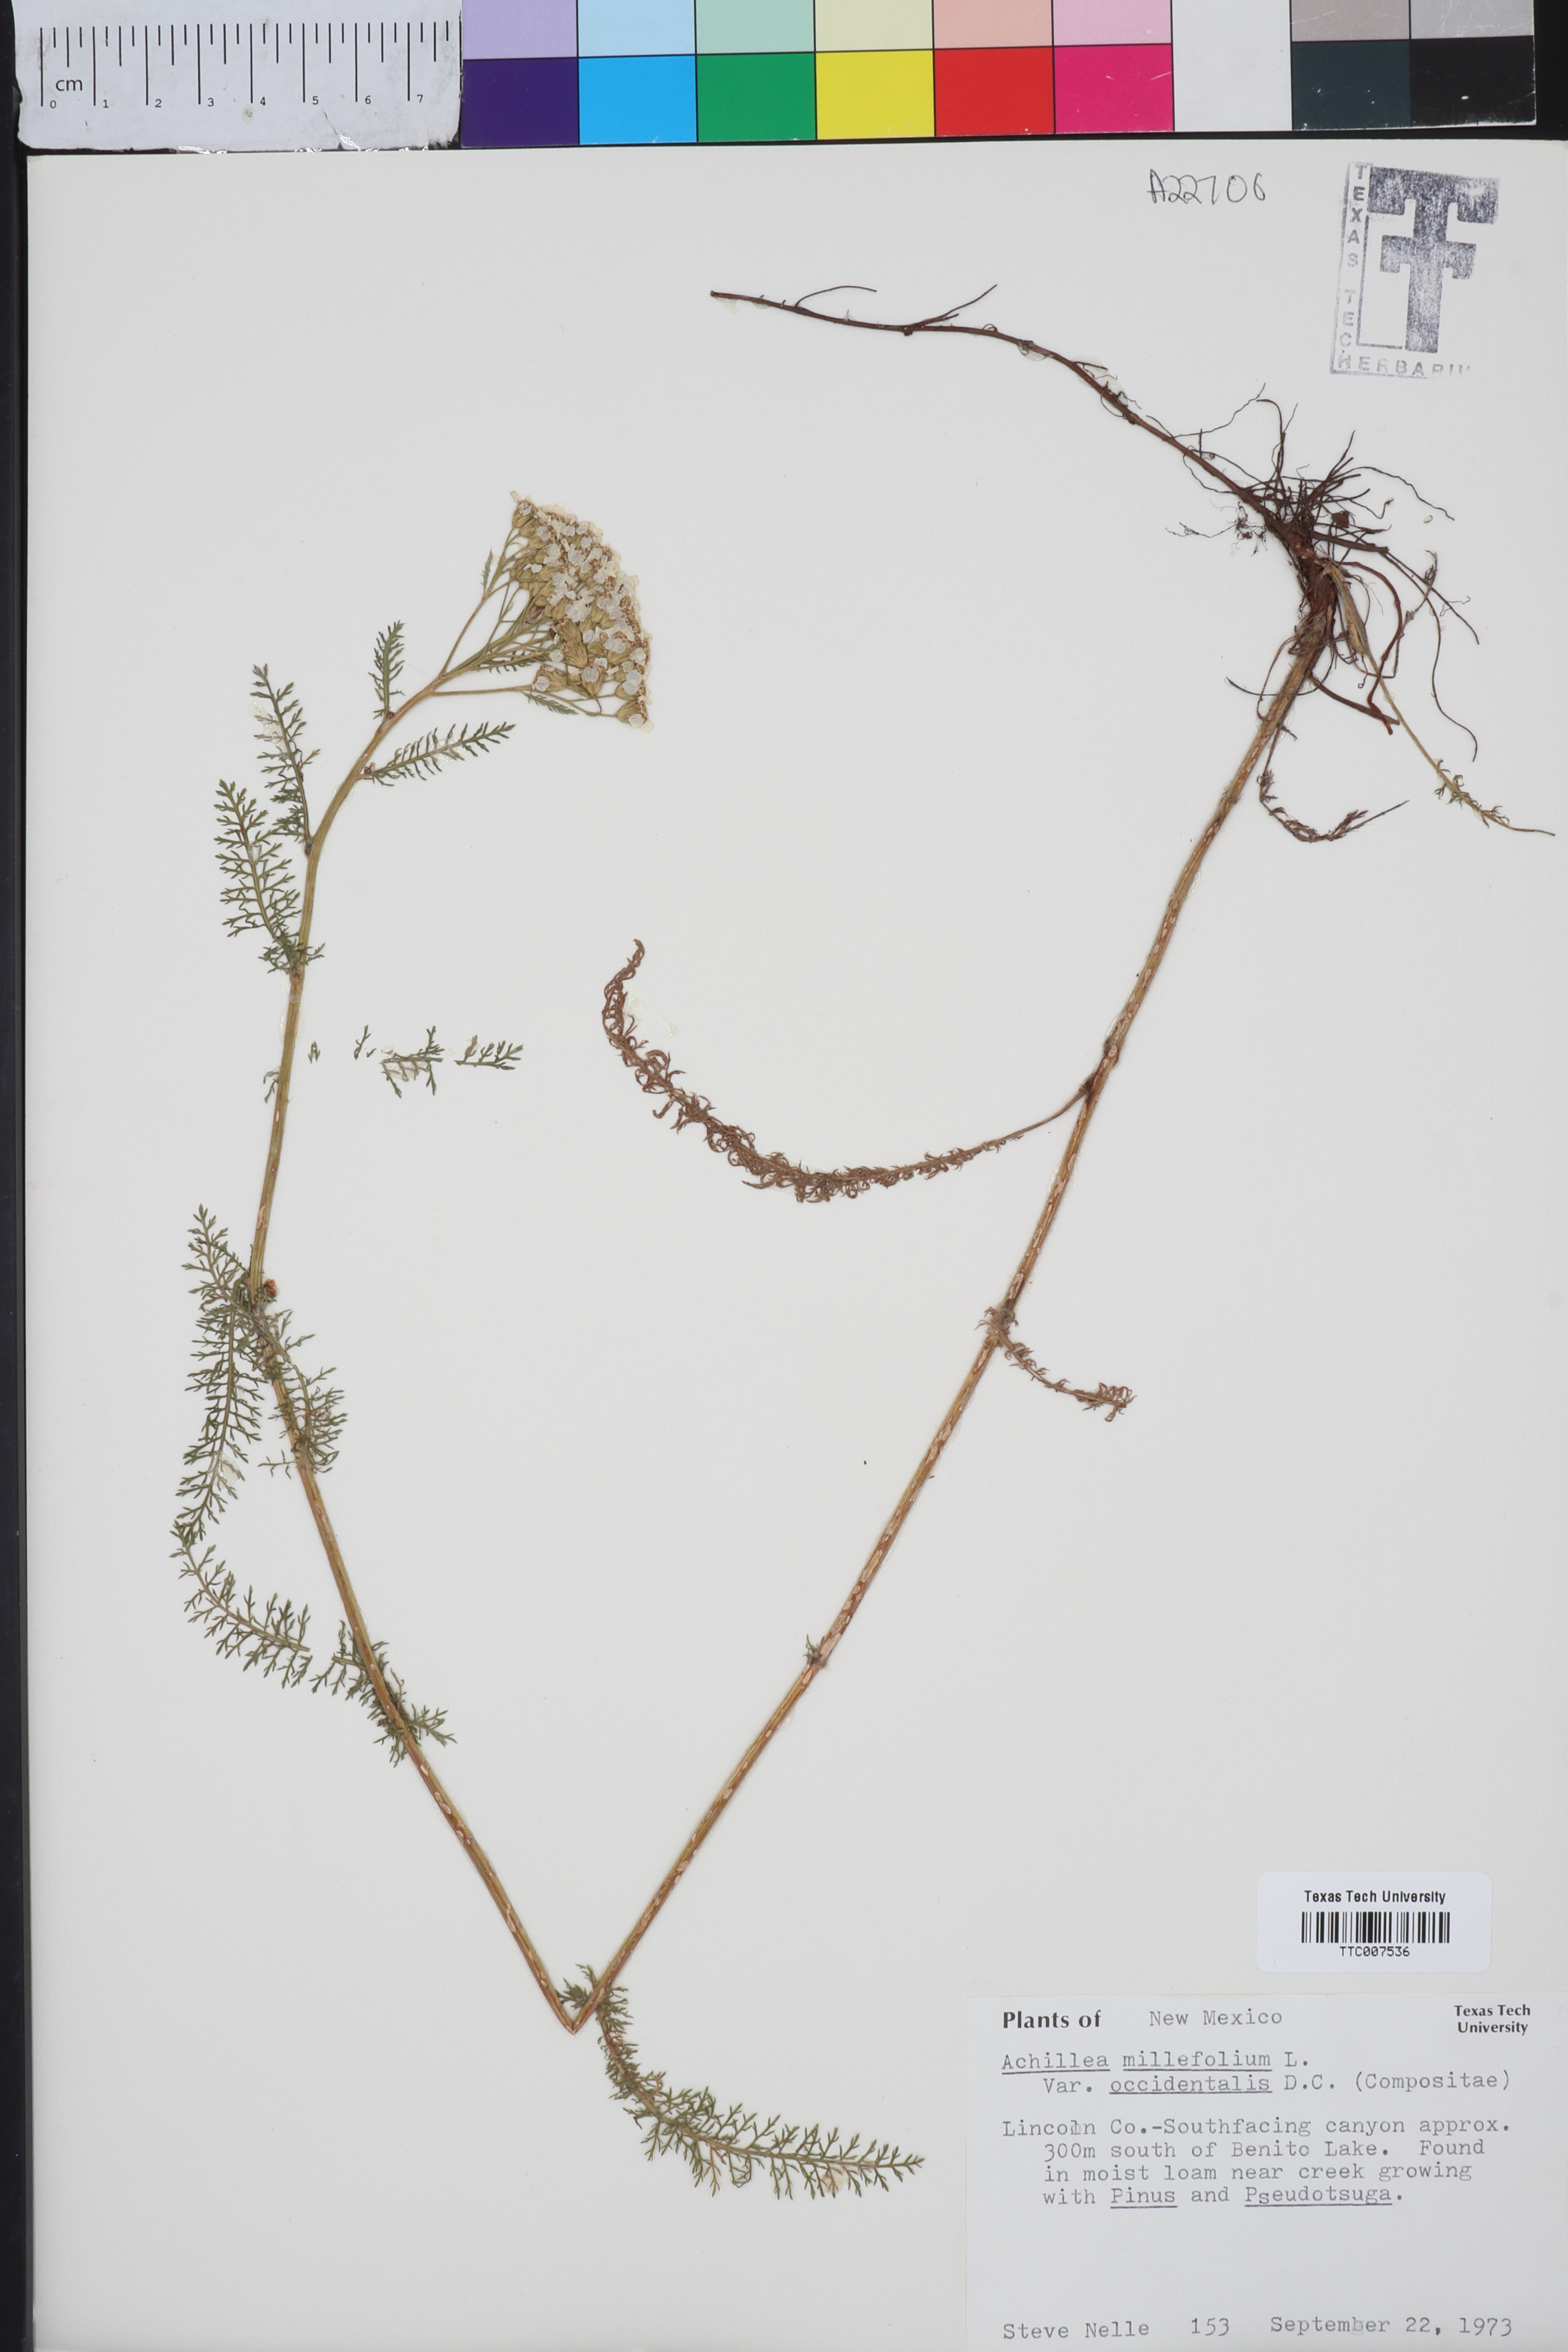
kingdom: Plantae
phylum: Tracheophyta
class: Magnoliopsida
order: Asterales
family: Asteraceae
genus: Achillea
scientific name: Achillea millefolium
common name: Yarrow
